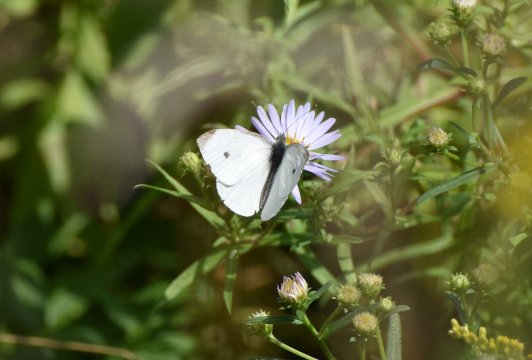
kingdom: Animalia
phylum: Arthropoda
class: Insecta
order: Lepidoptera
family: Pieridae
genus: Pieris
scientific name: Pieris rapae
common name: Cabbage White
